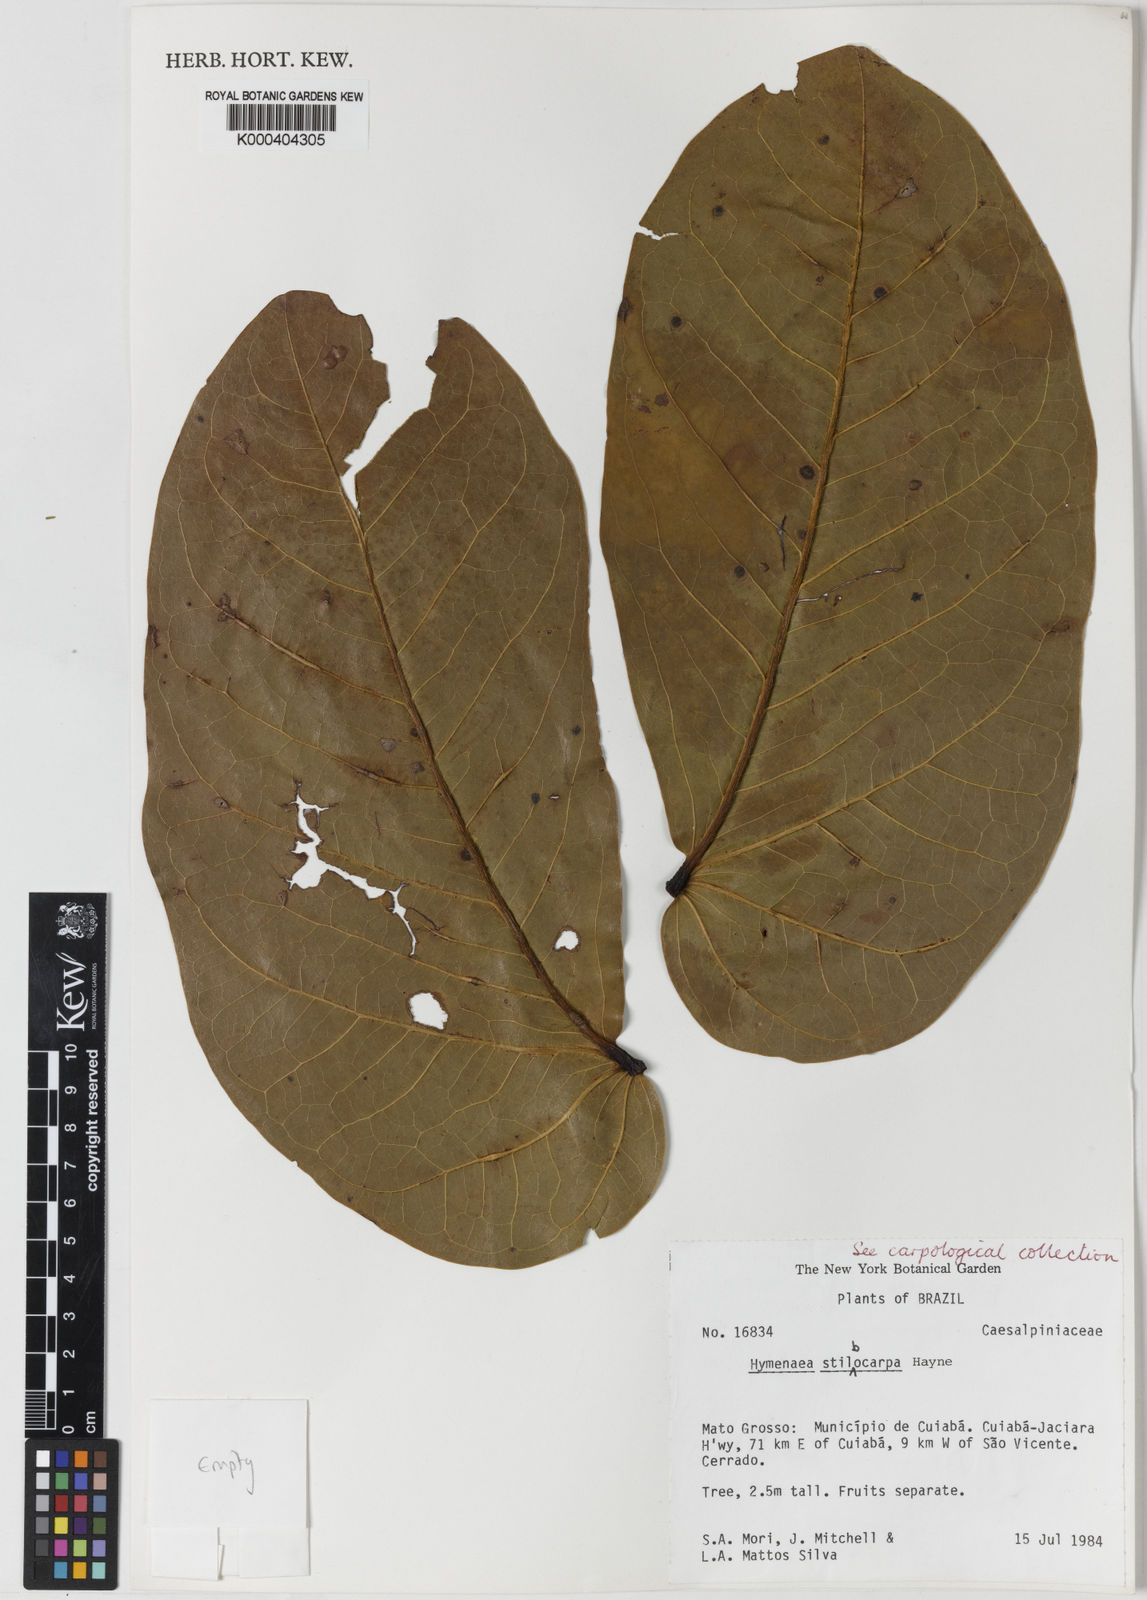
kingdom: Plantae
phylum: Tracheophyta
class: Magnoliopsida
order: Fabales
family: Fabaceae
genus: Hymenaea
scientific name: Hymenaea courbaril
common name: Brazilian copal
